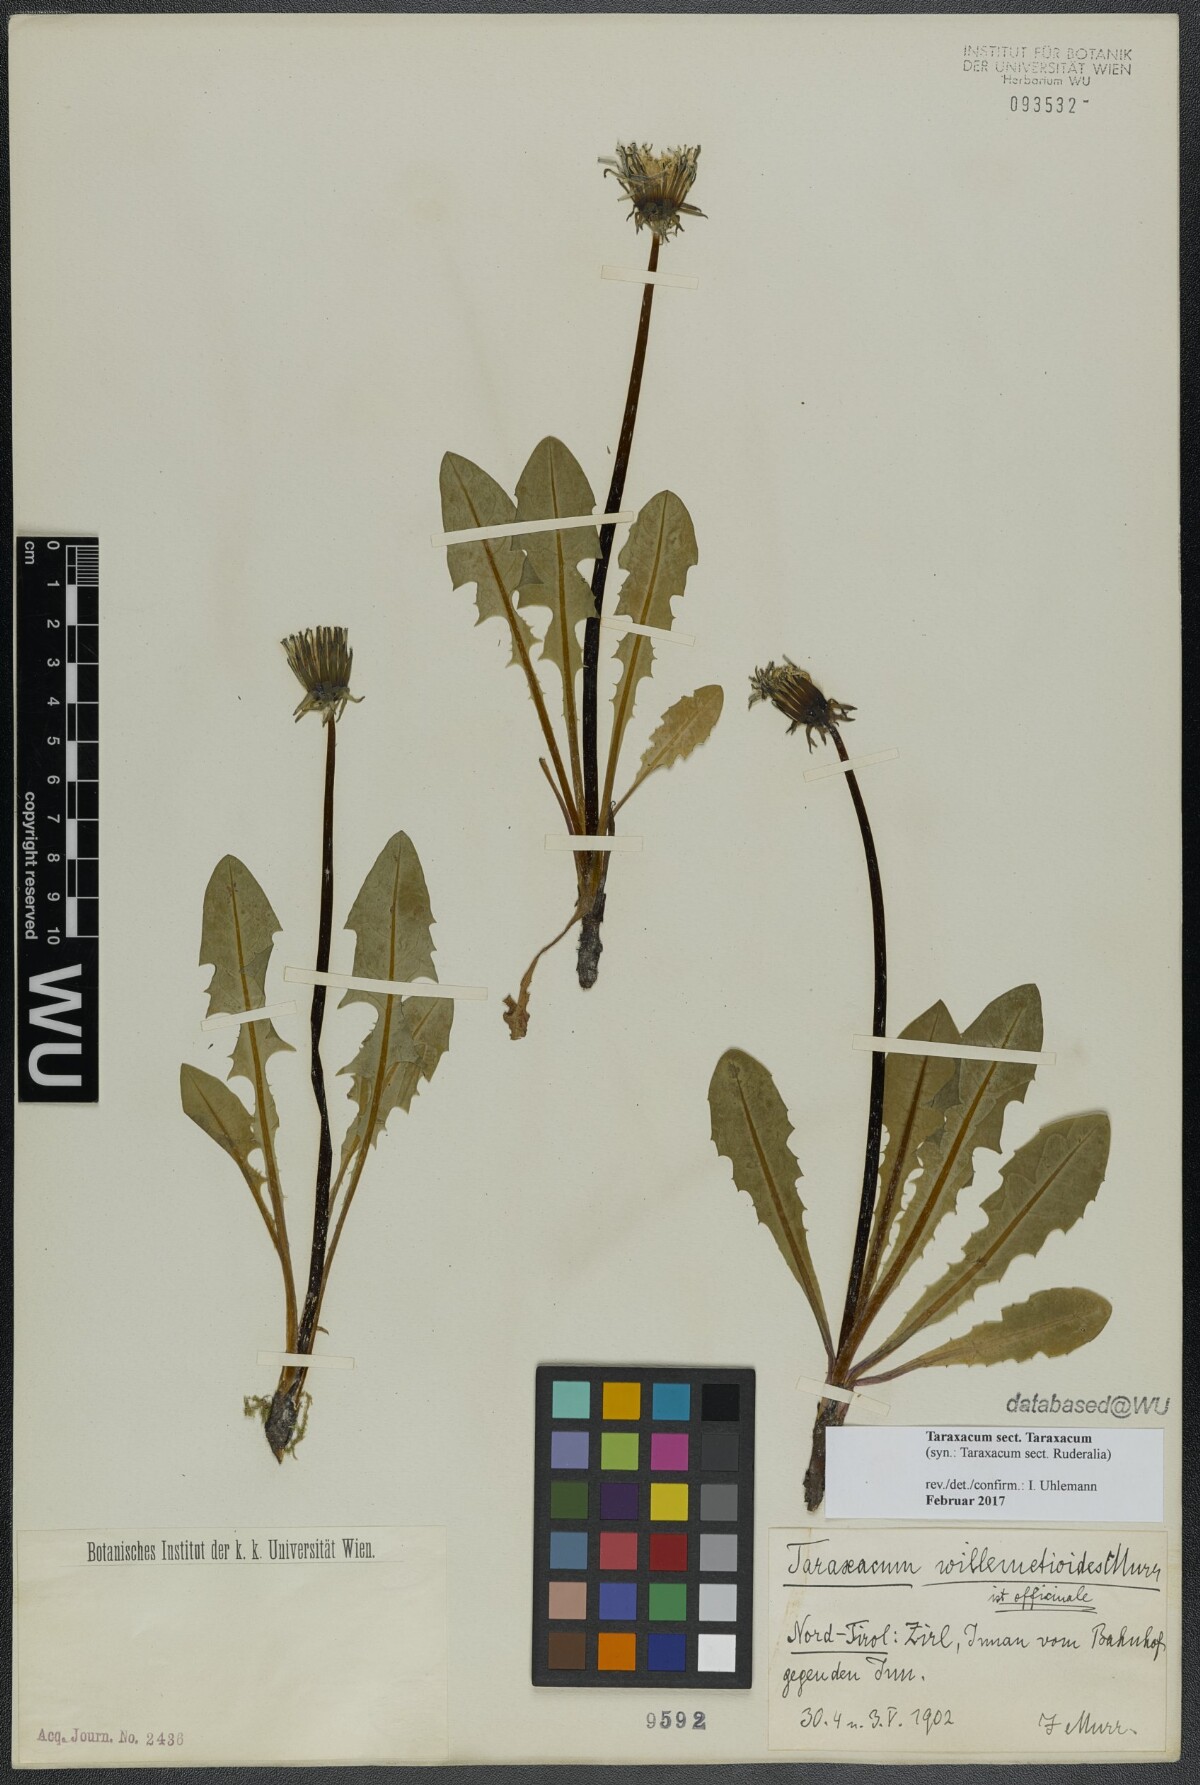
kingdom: Plantae
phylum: Tracheophyta
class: Magnoliopsida
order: Asterales
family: Asteraceae
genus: Taraxacum
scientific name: Taraxacum
